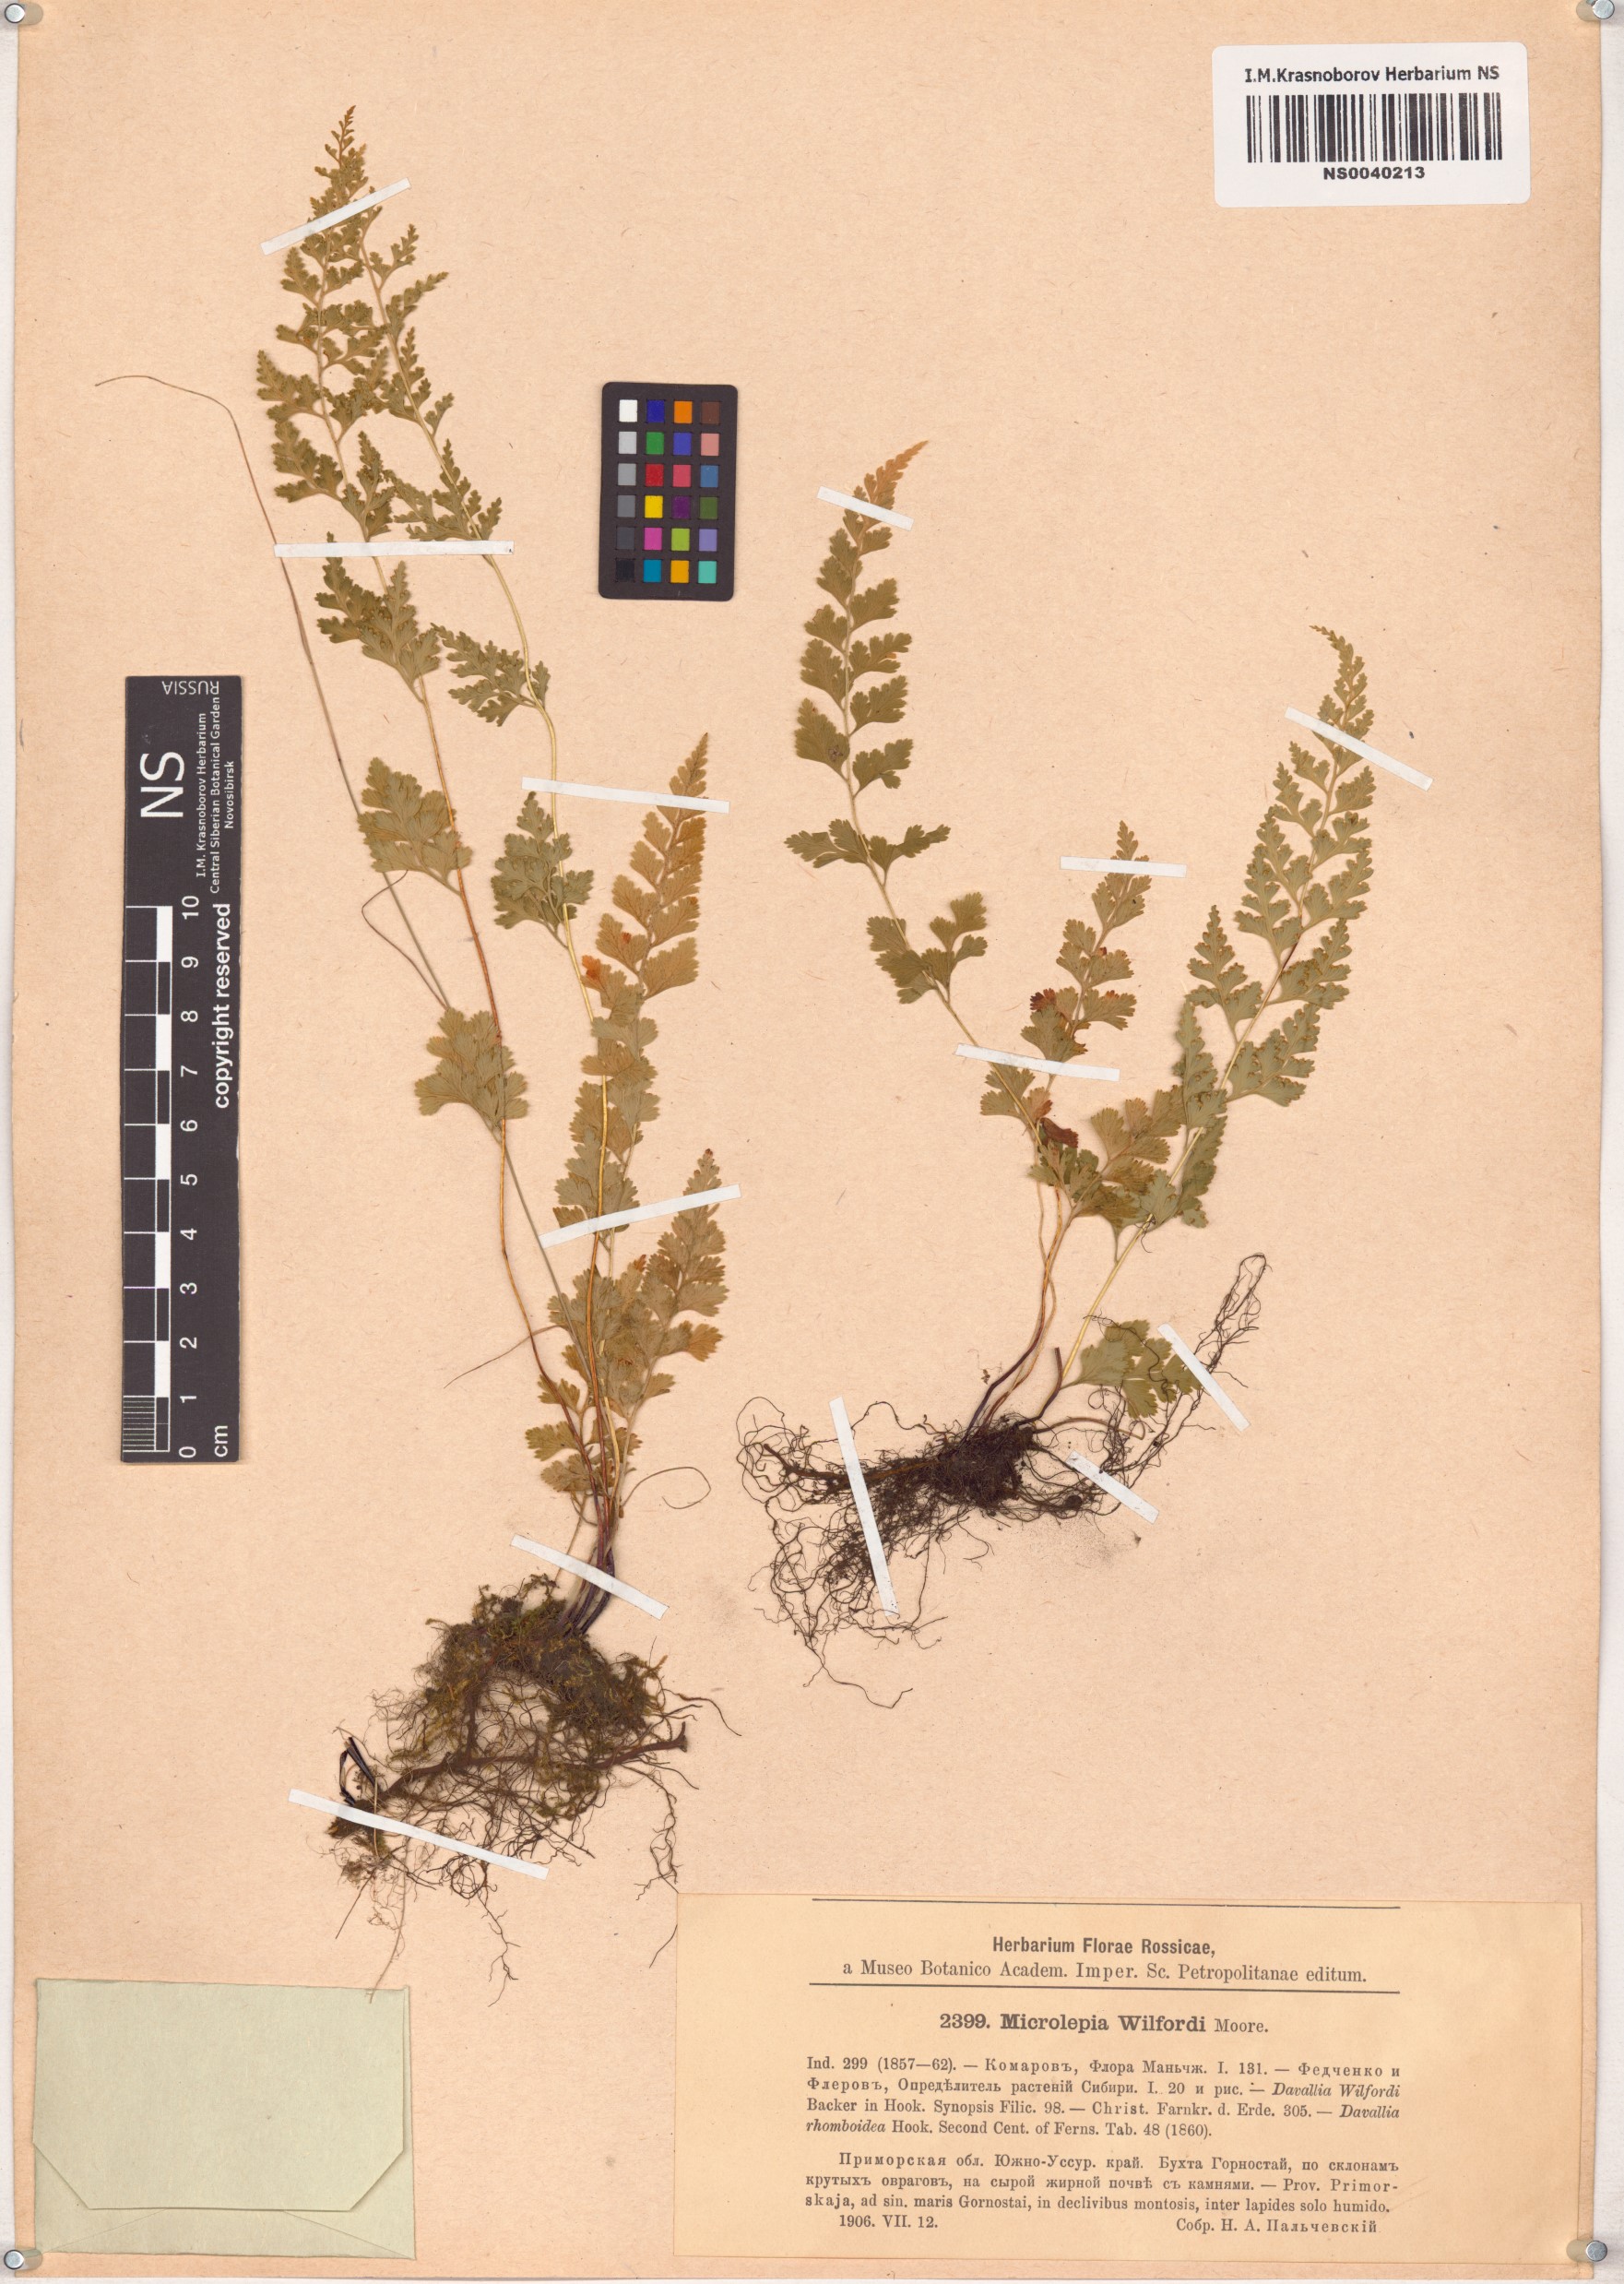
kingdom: Plantae
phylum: Tracheophyta
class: Polypodiopsida
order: Polypodiales
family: Dennstaedtiaceae
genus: Sitobolium
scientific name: Sitobolium wilfordii
